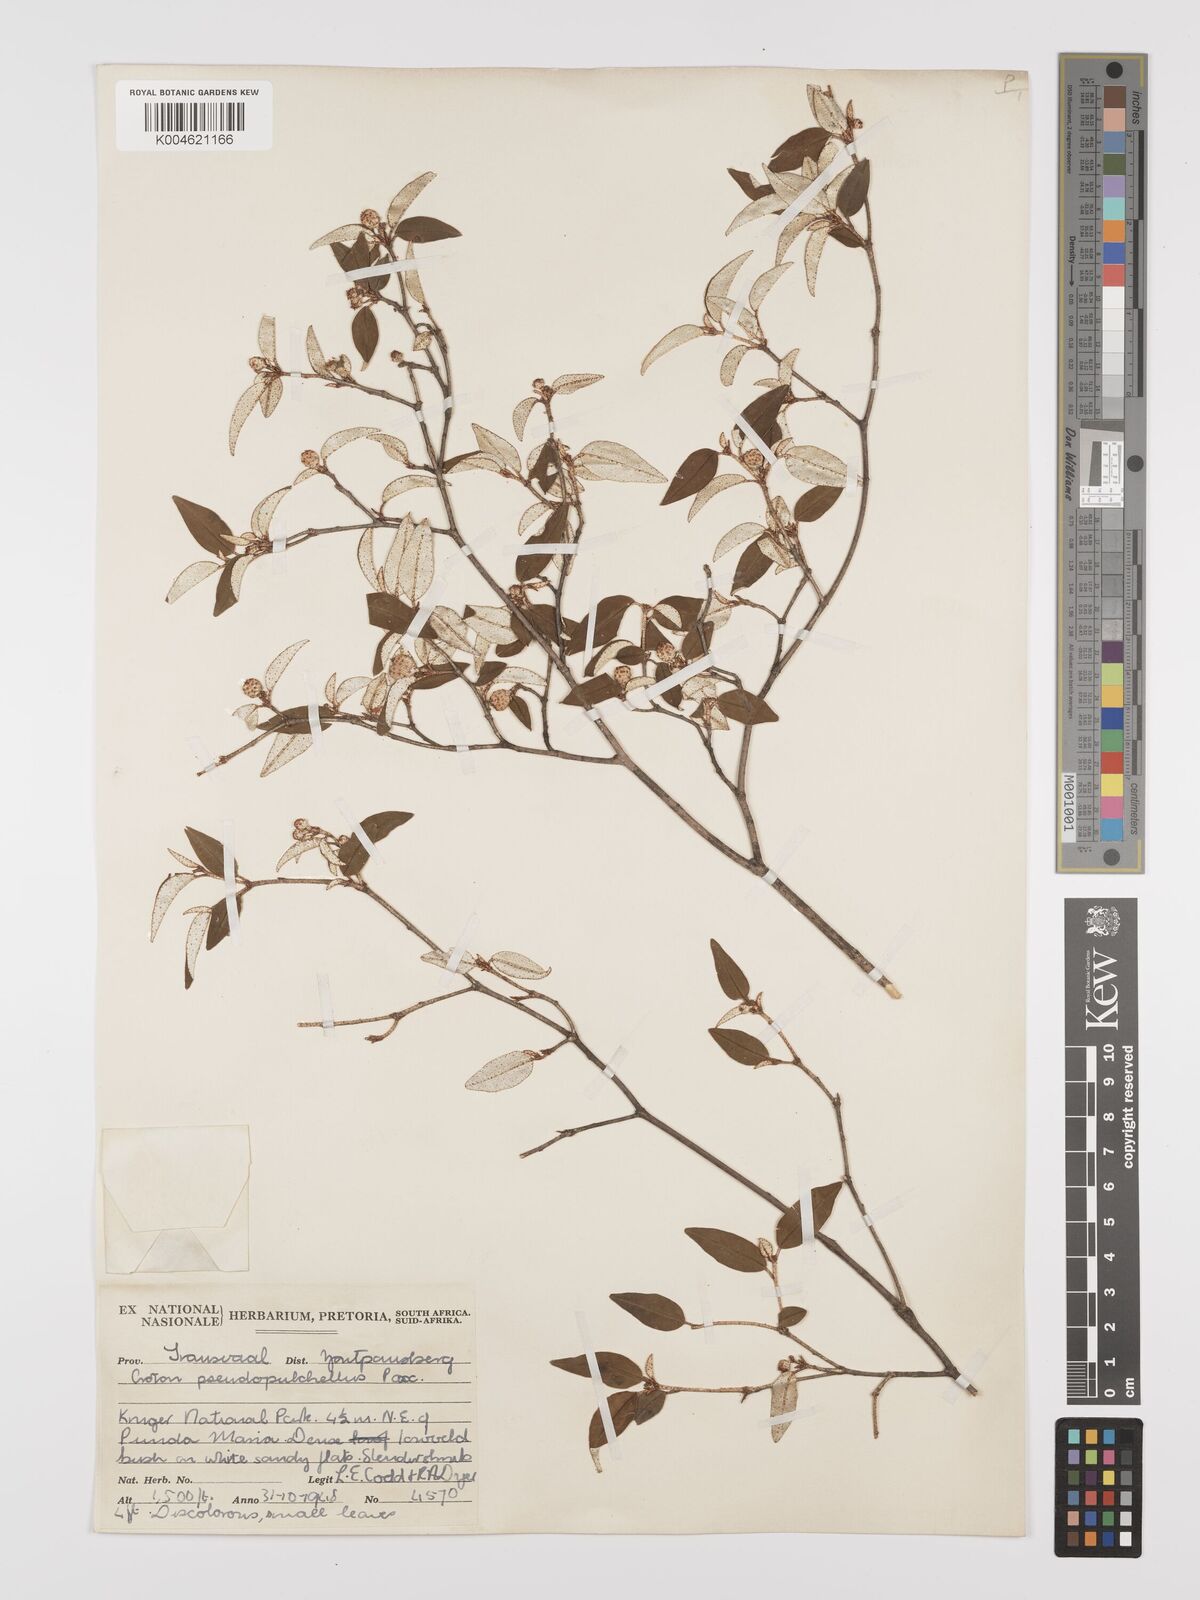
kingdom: Plantae
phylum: Tracheophyta
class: Magnoliopsida
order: Malpighiales
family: Euphorbiaceae
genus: Croton
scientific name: Croton pseudopulchellus
